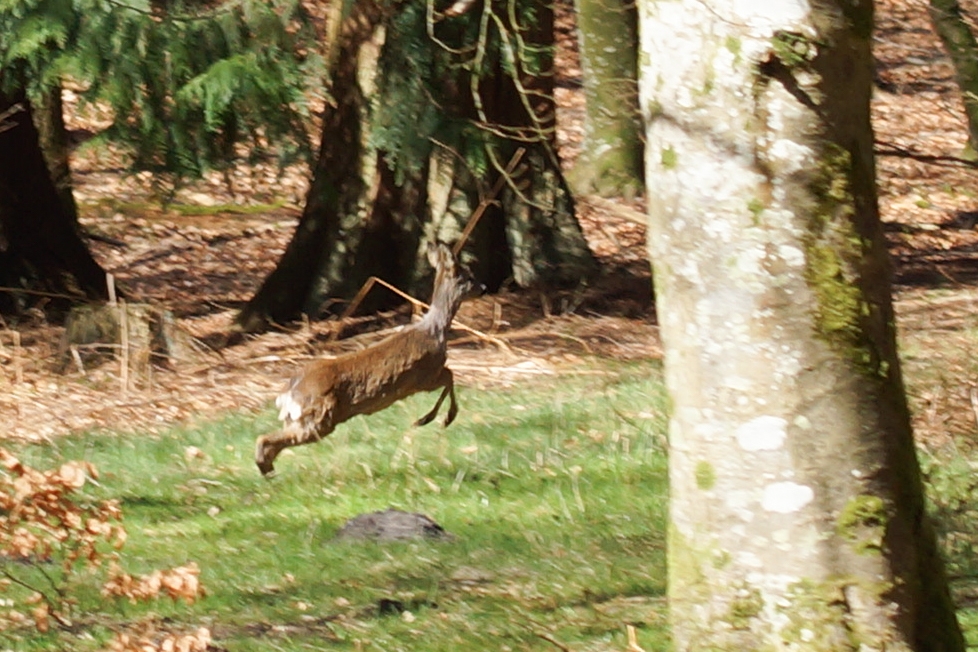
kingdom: Animalia
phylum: Chordata
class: Mammalia
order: Artiodactyla
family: Cervidae
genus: Capreolus
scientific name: Capreolus capreolus
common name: Rådyr
